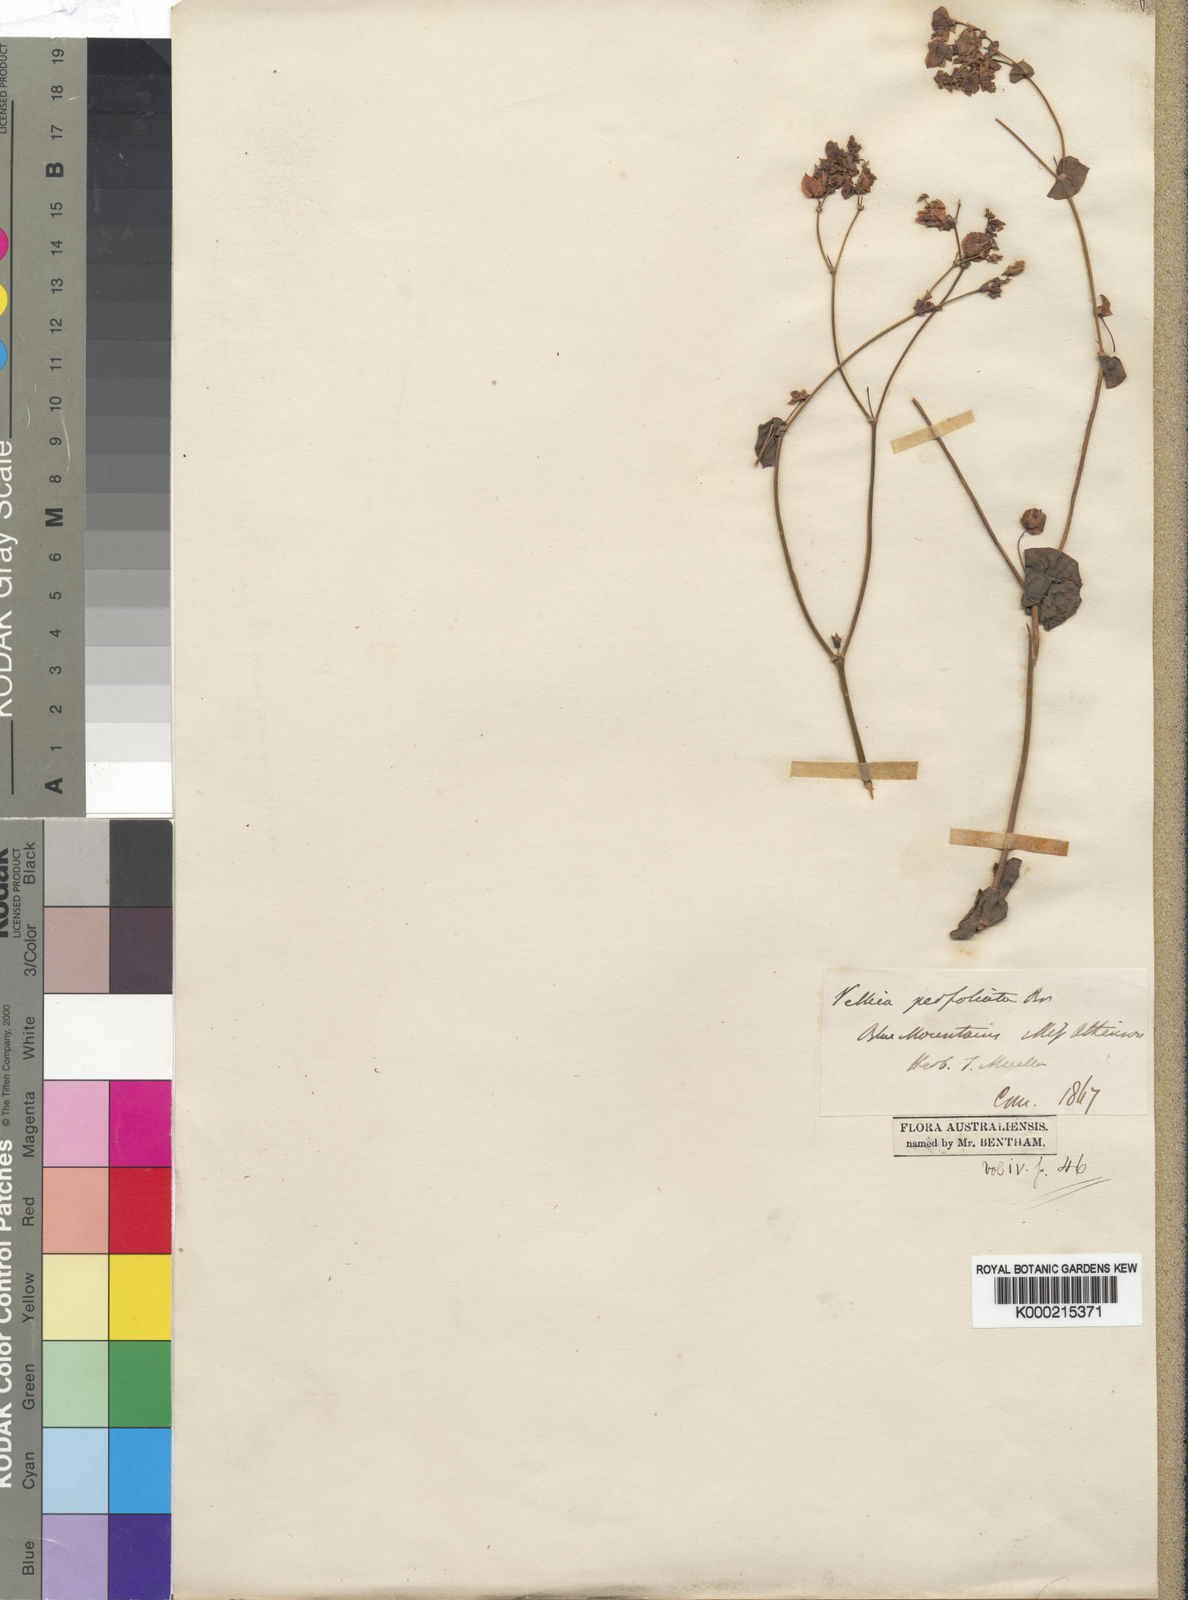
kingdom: Plantae
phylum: Tracheophyta
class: Magnoliopsida
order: Asterales
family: Goodeniaceae
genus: Goodenia
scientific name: Goodenia perfoliata
